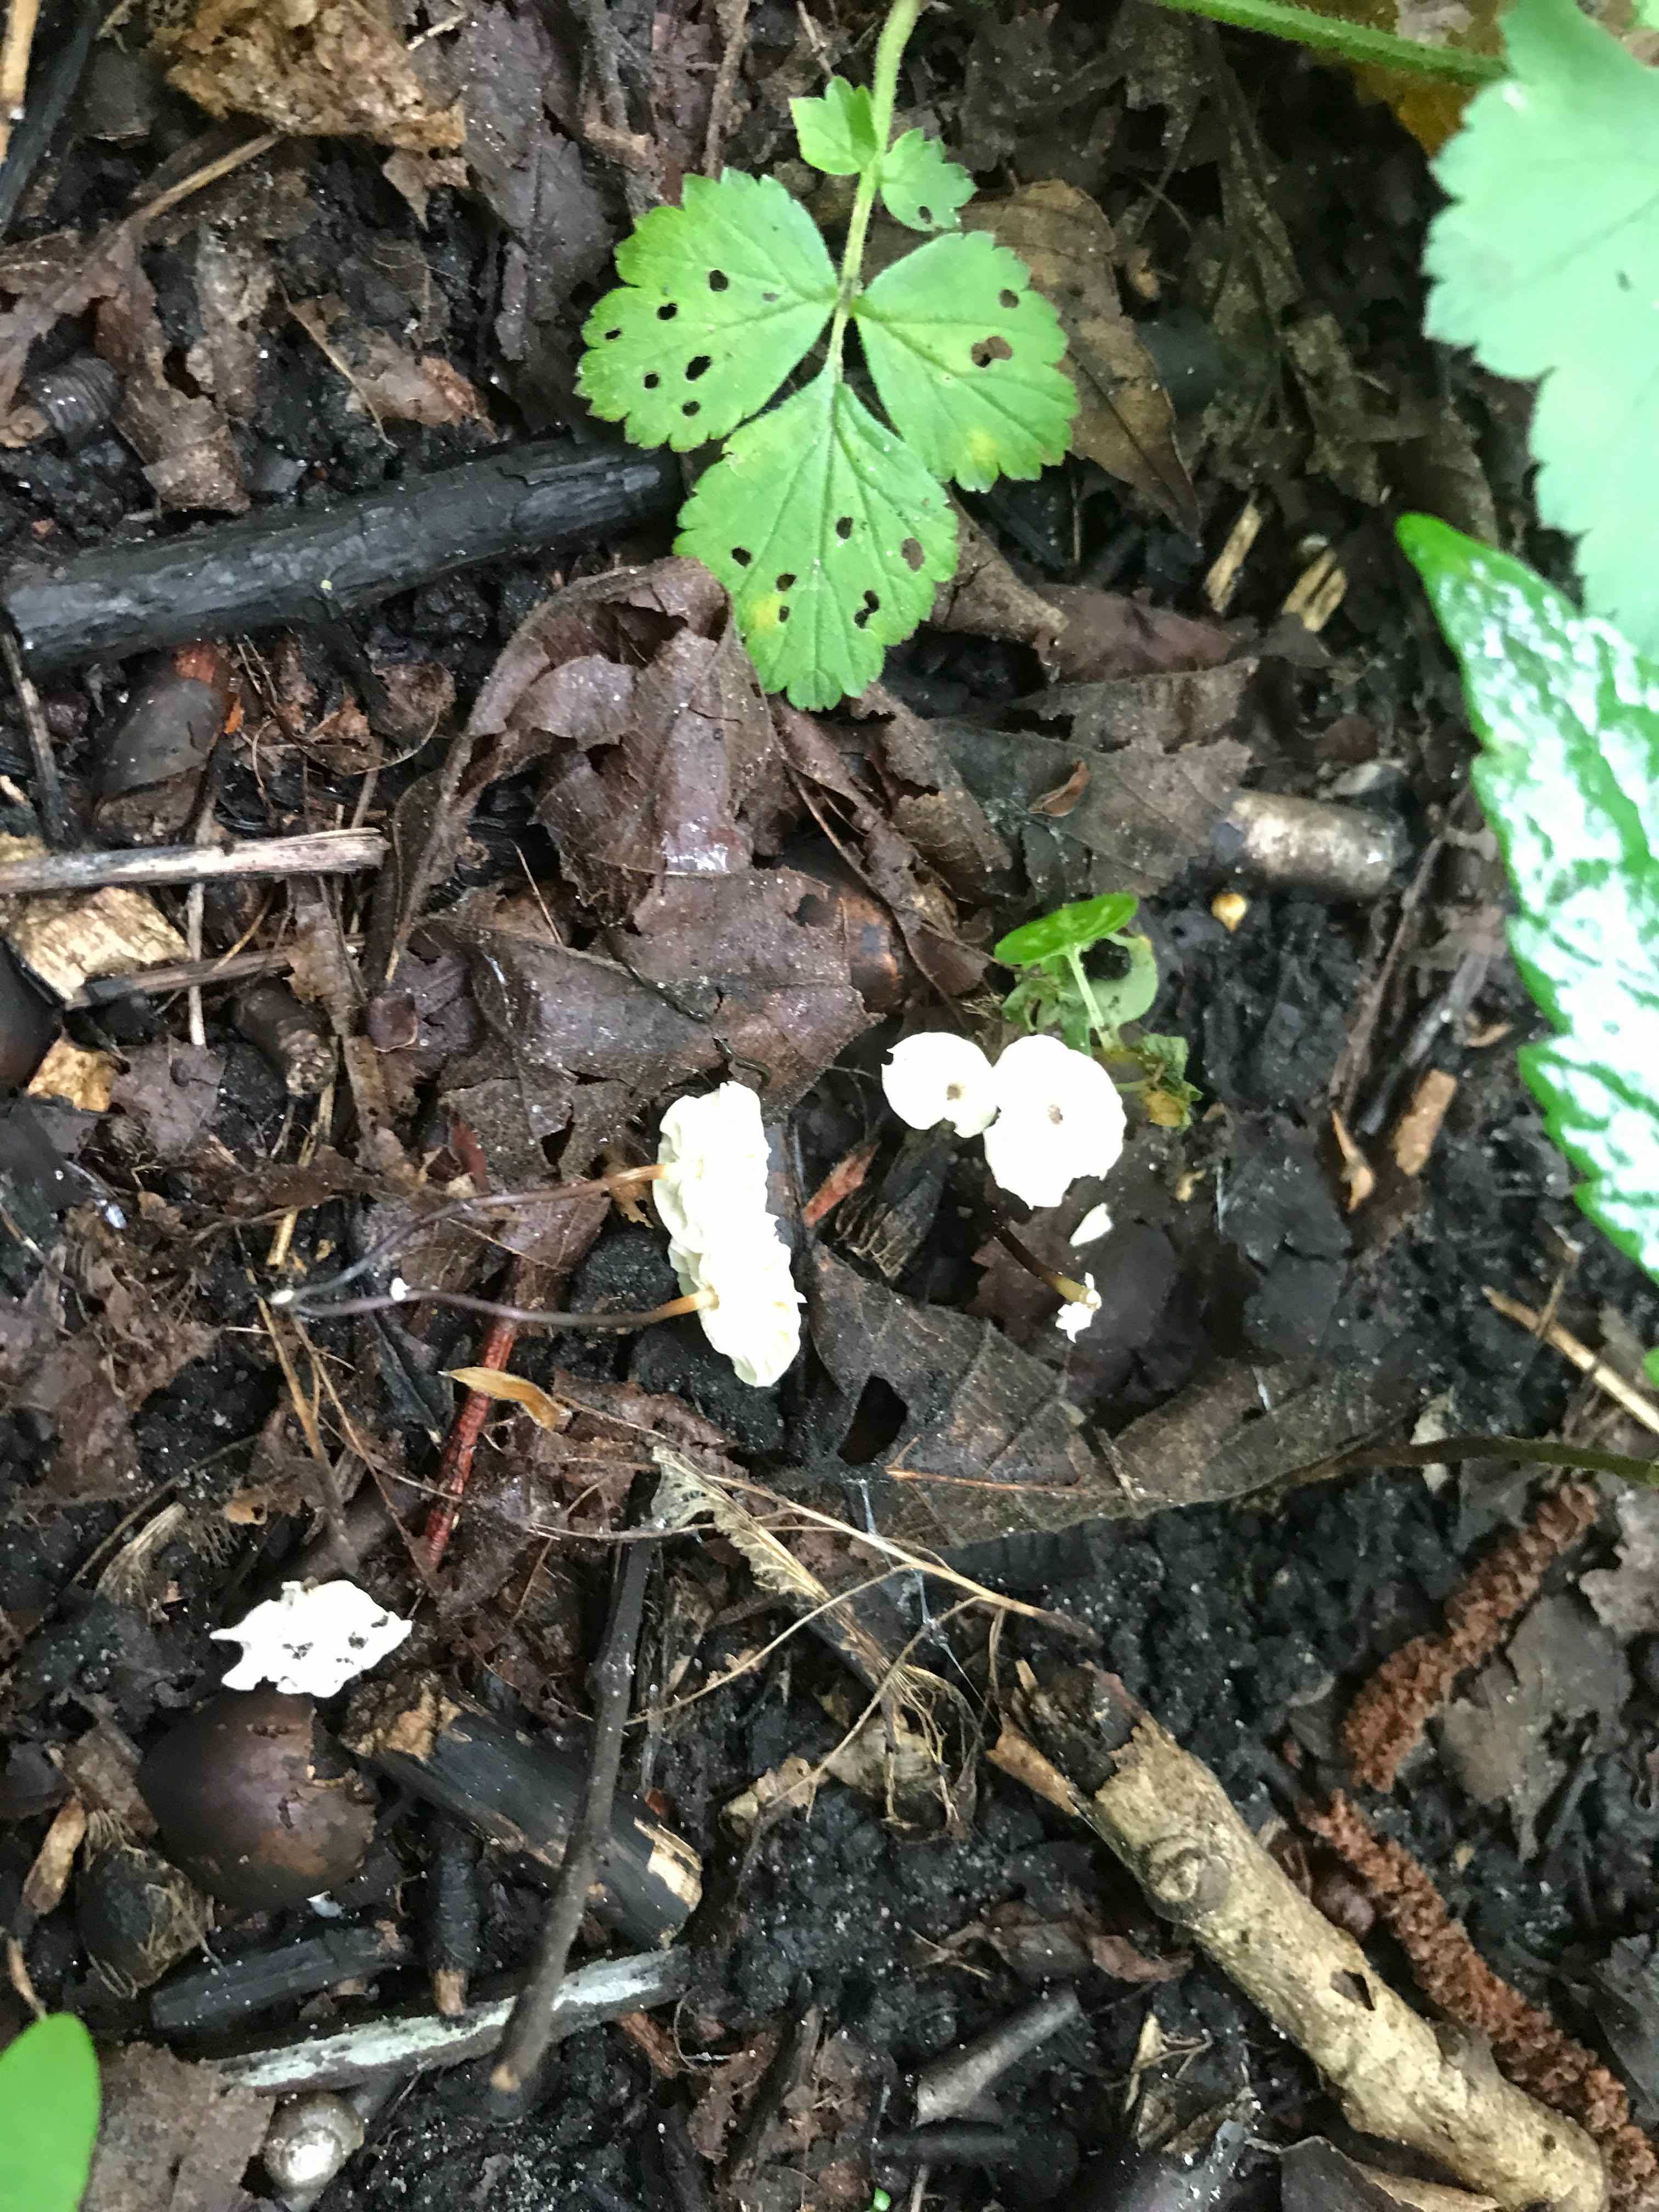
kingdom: Fungi
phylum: Basidiomycota
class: Agaricomycetes
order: Agaricales
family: Marasmiaceae
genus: Marasmius
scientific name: Marasmius rotula
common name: hjul-bruskhat
